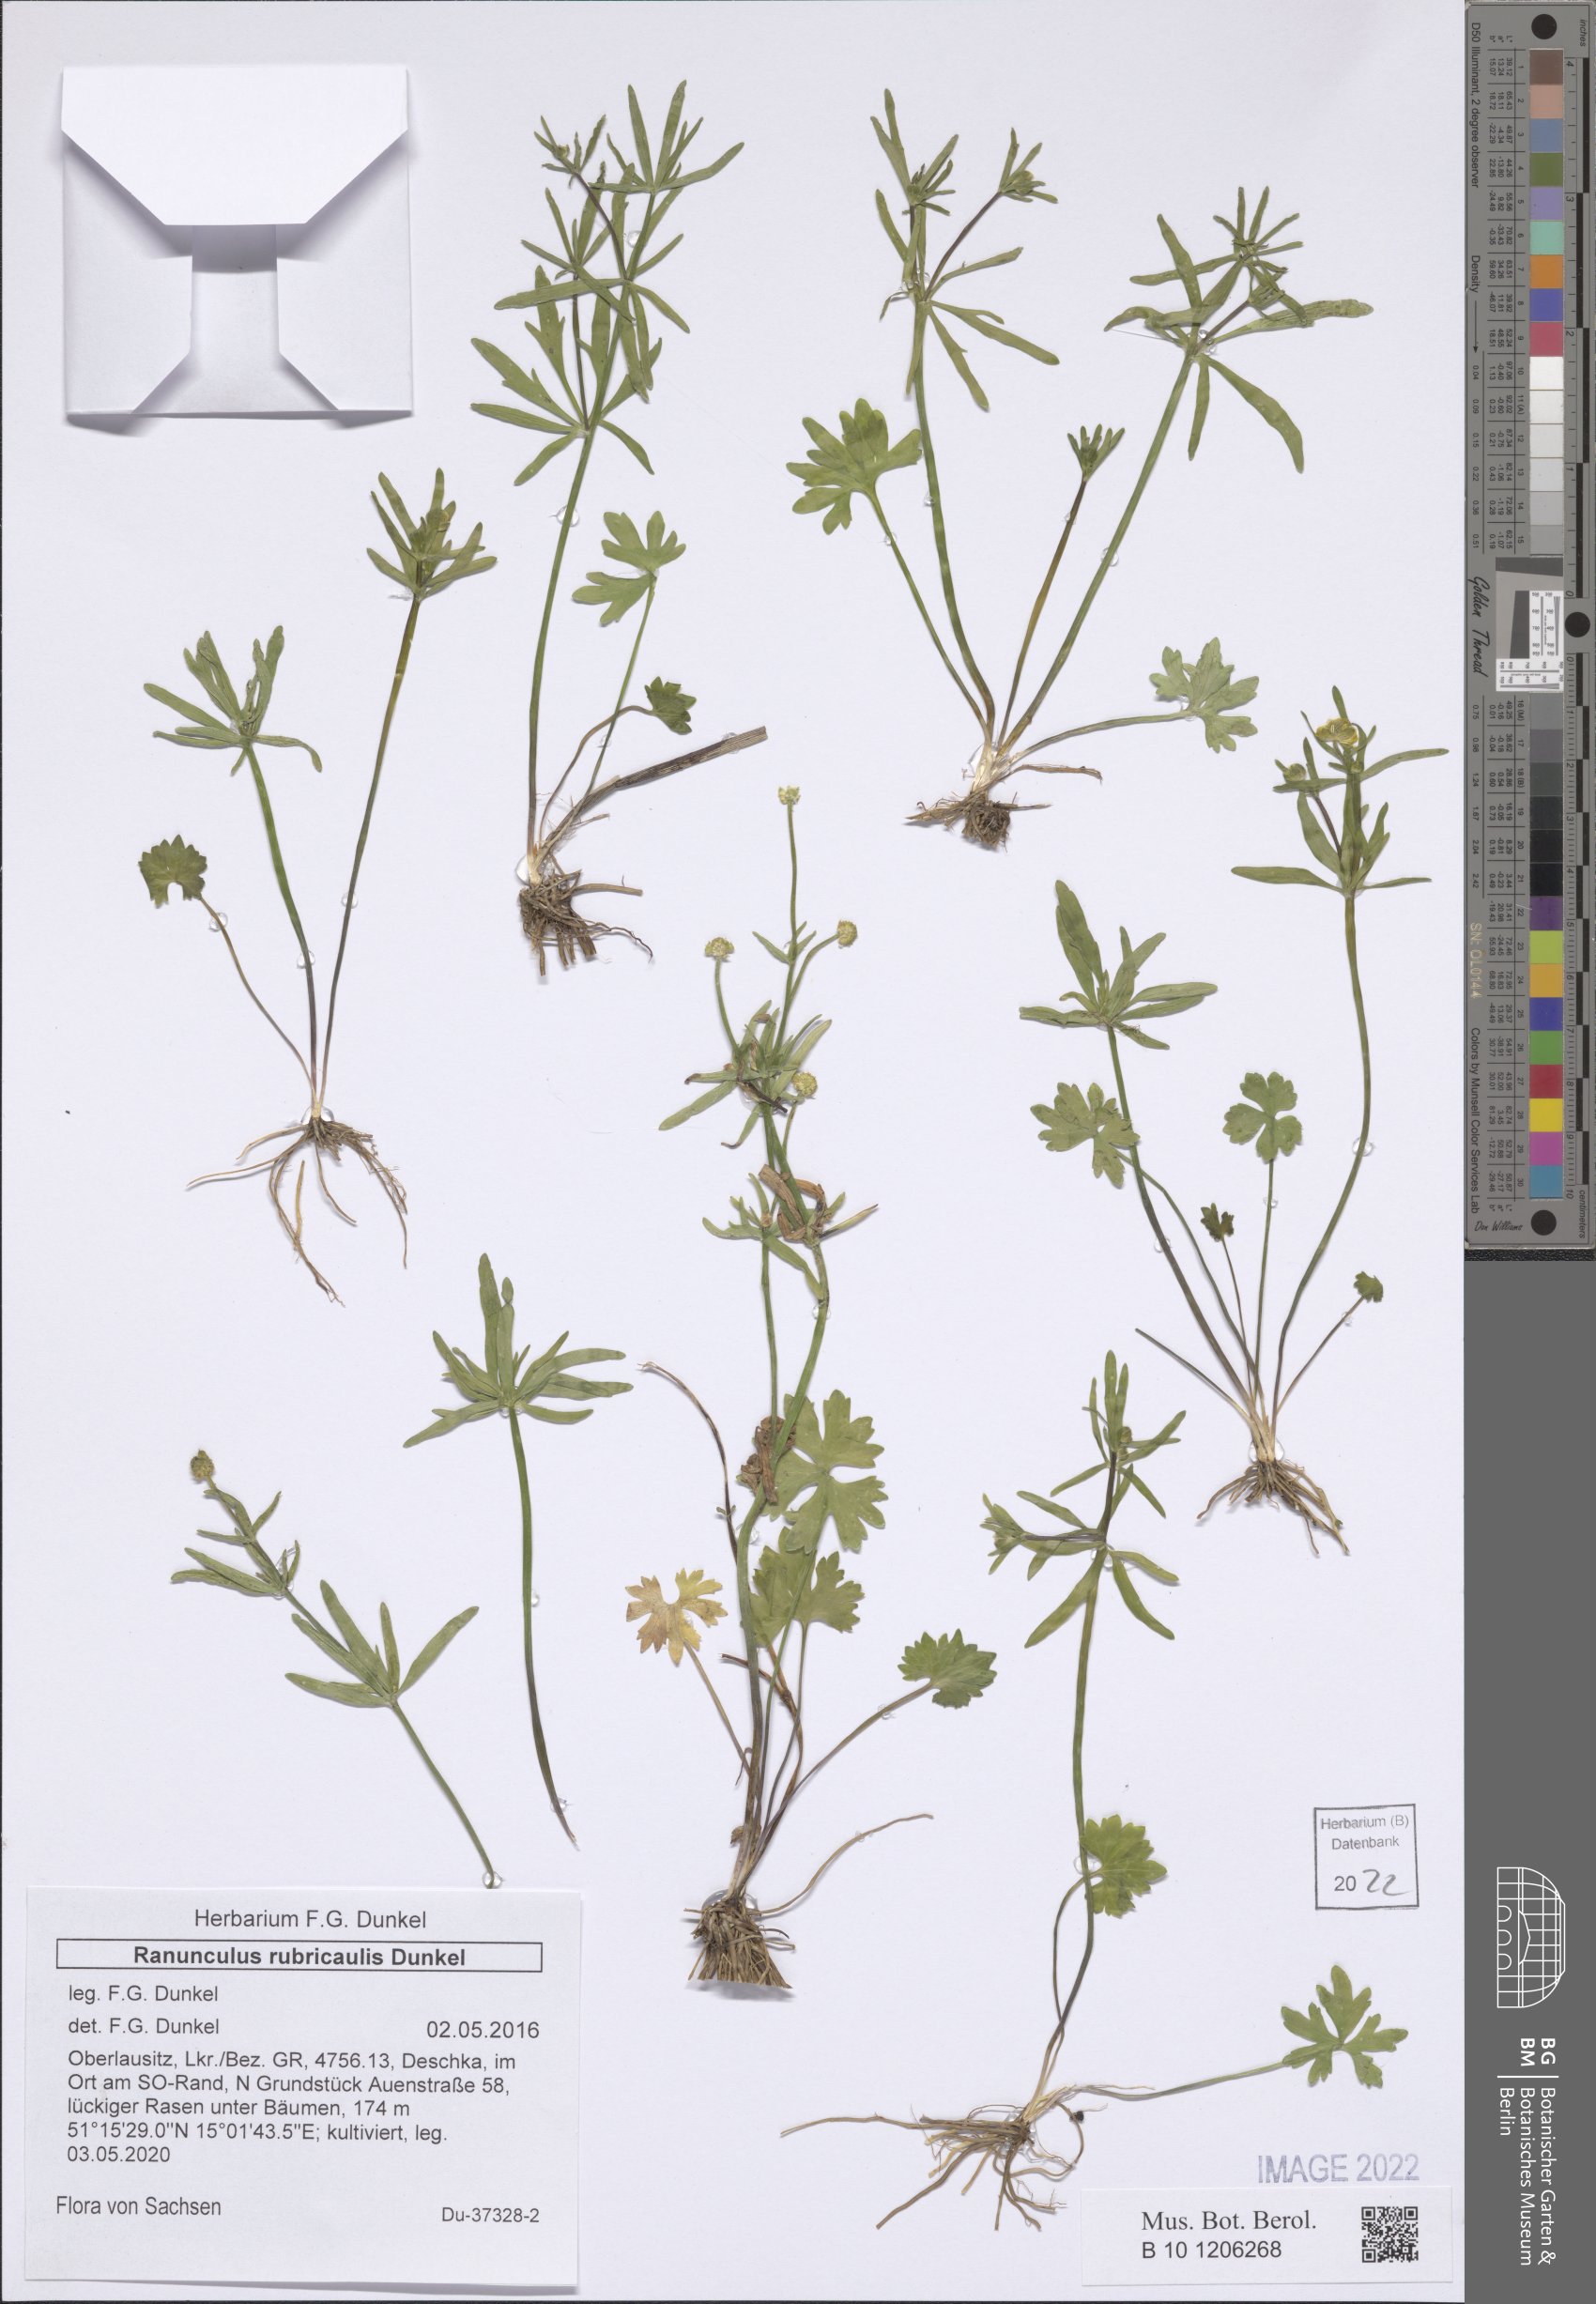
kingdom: Plantae
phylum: Tracheophyta
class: Magnoliopsida
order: Ranunculales
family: Ranunculaceae
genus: Ranunculus
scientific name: Ranunculus rubricaulis
